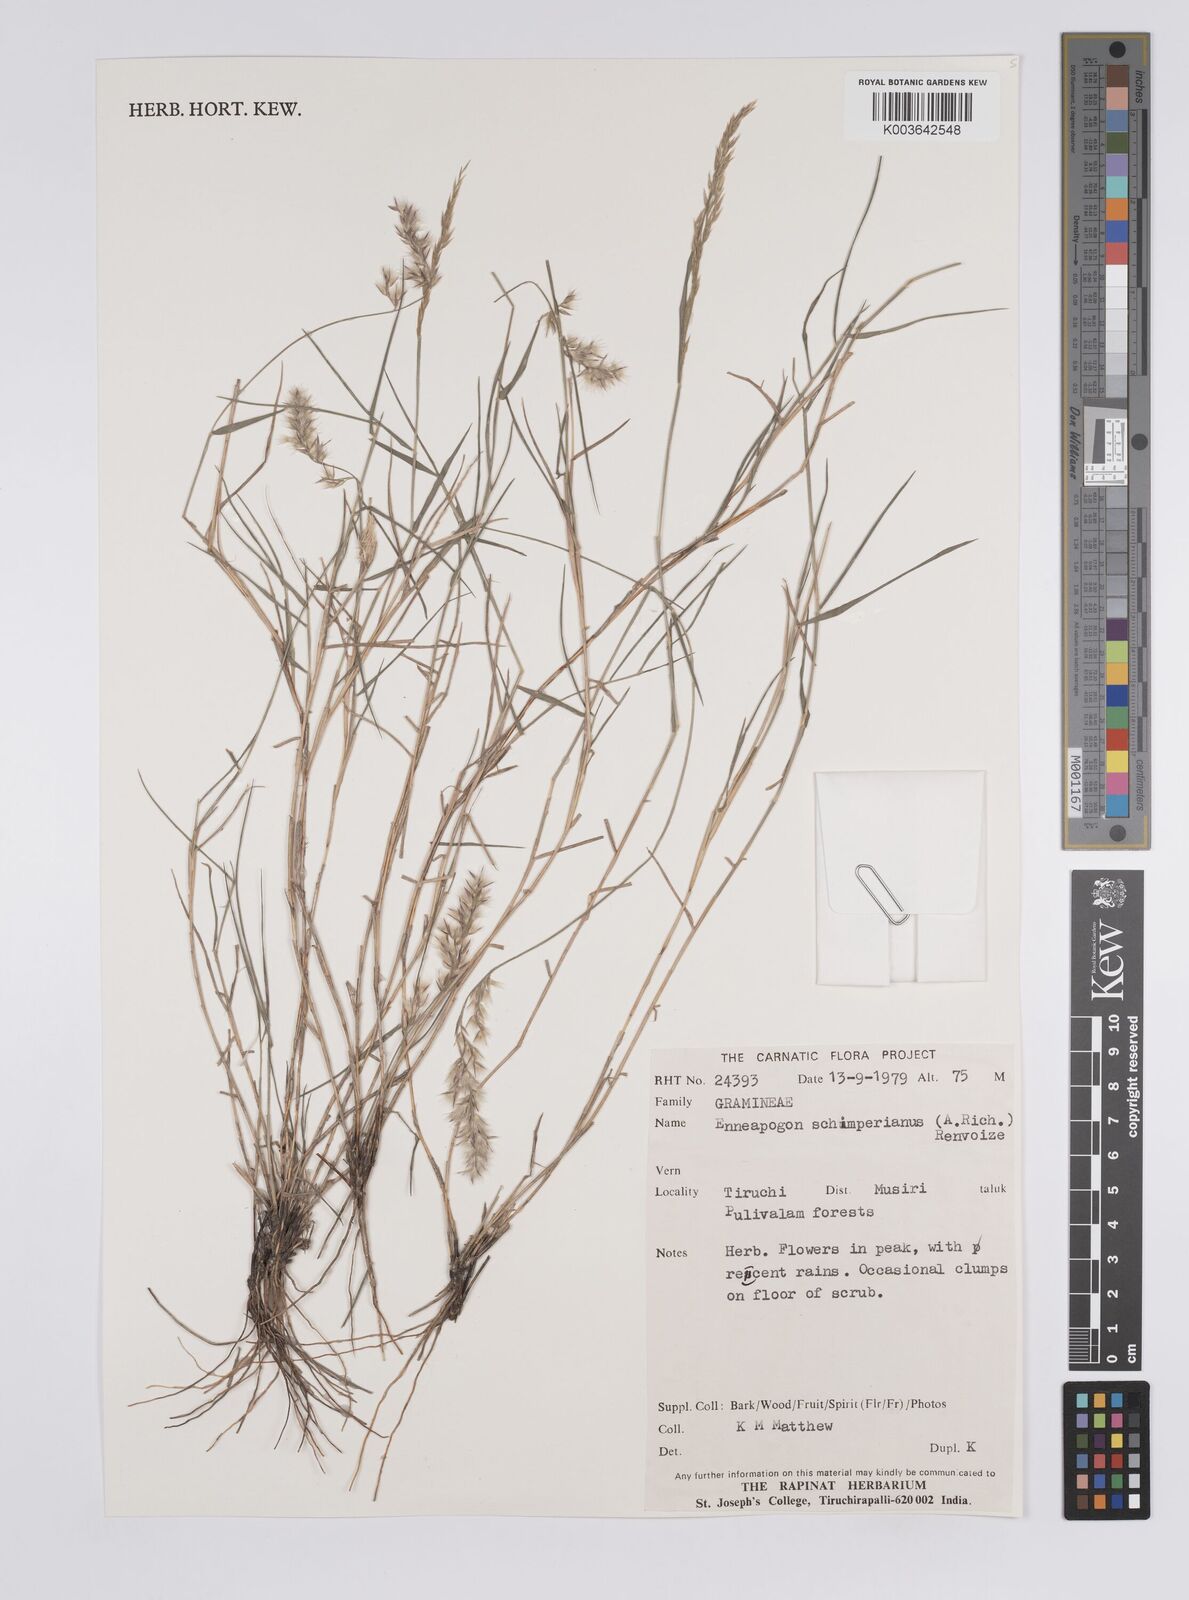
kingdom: Plantae
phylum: Tracheophyta
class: Liliopsida
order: Poales
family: Poaceae
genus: Enneapogon
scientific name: Enneapogon persicus
